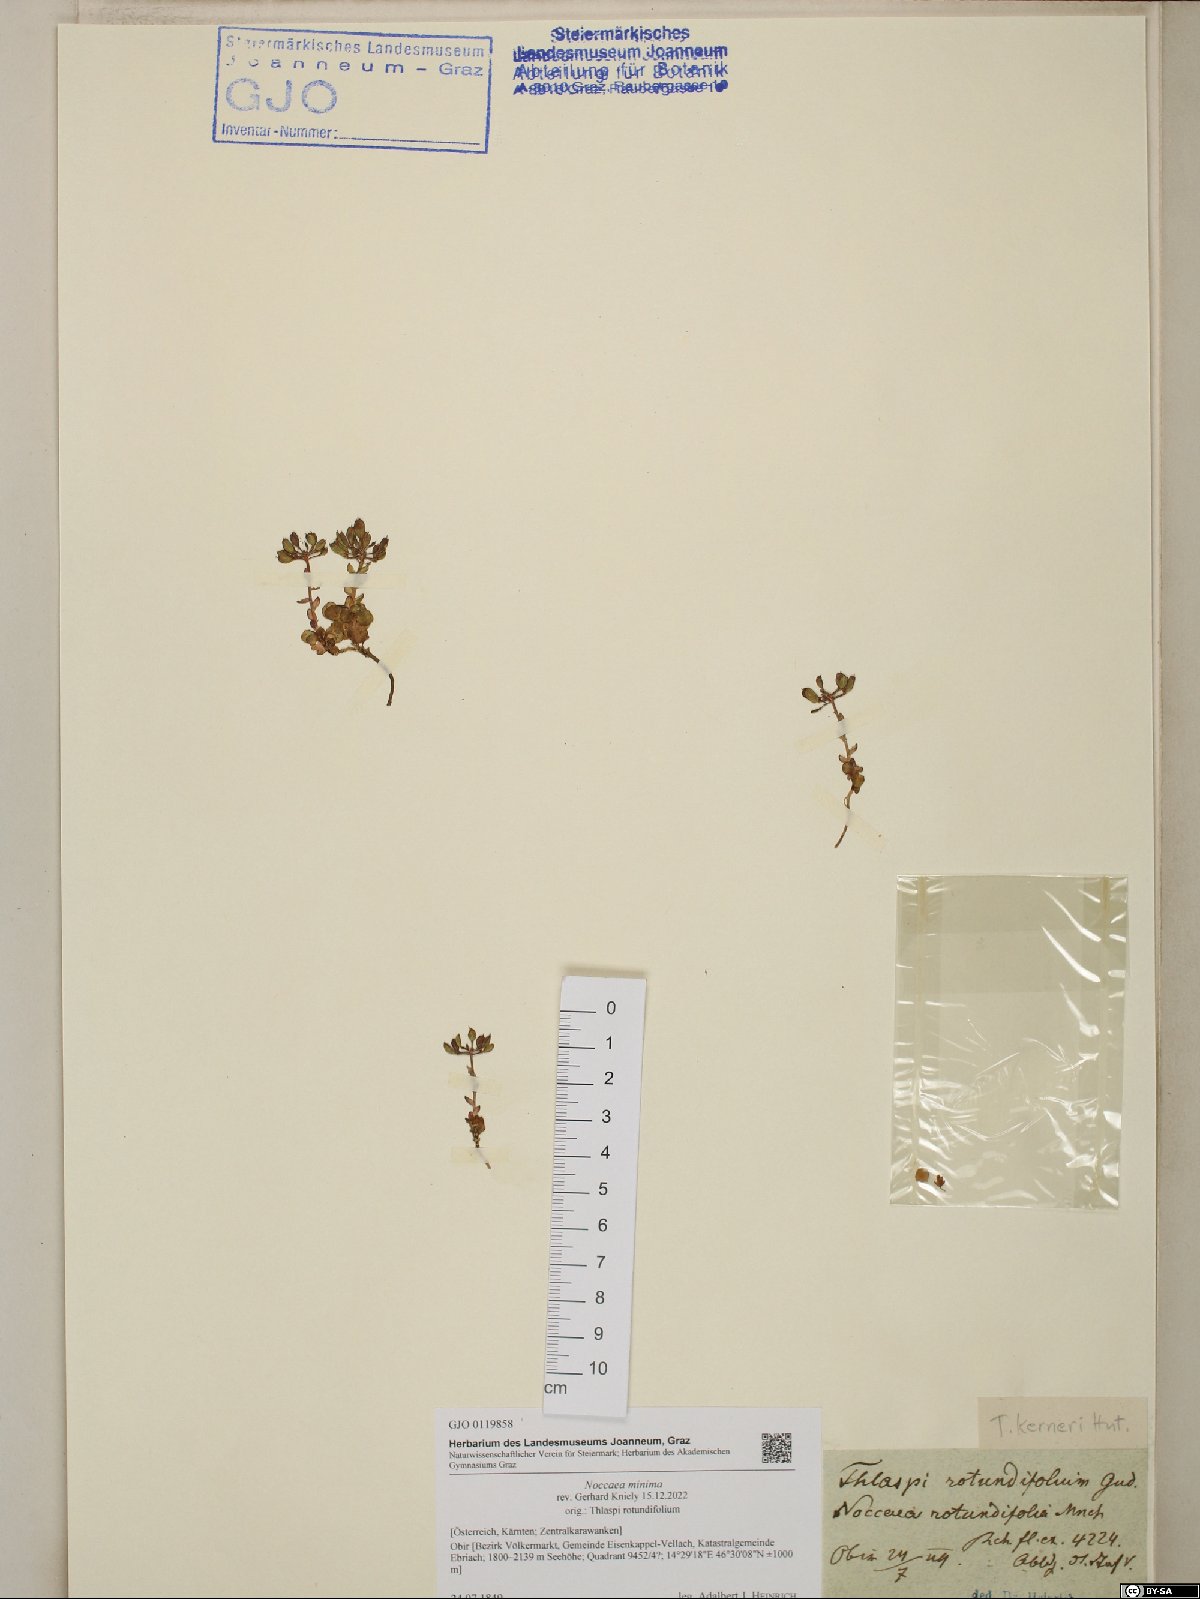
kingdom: Plantae
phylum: Tracheophyta
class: Magnoliopsida
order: Brassicales
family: Brassicaceae
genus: Noccaea
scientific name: Noccaea minima
